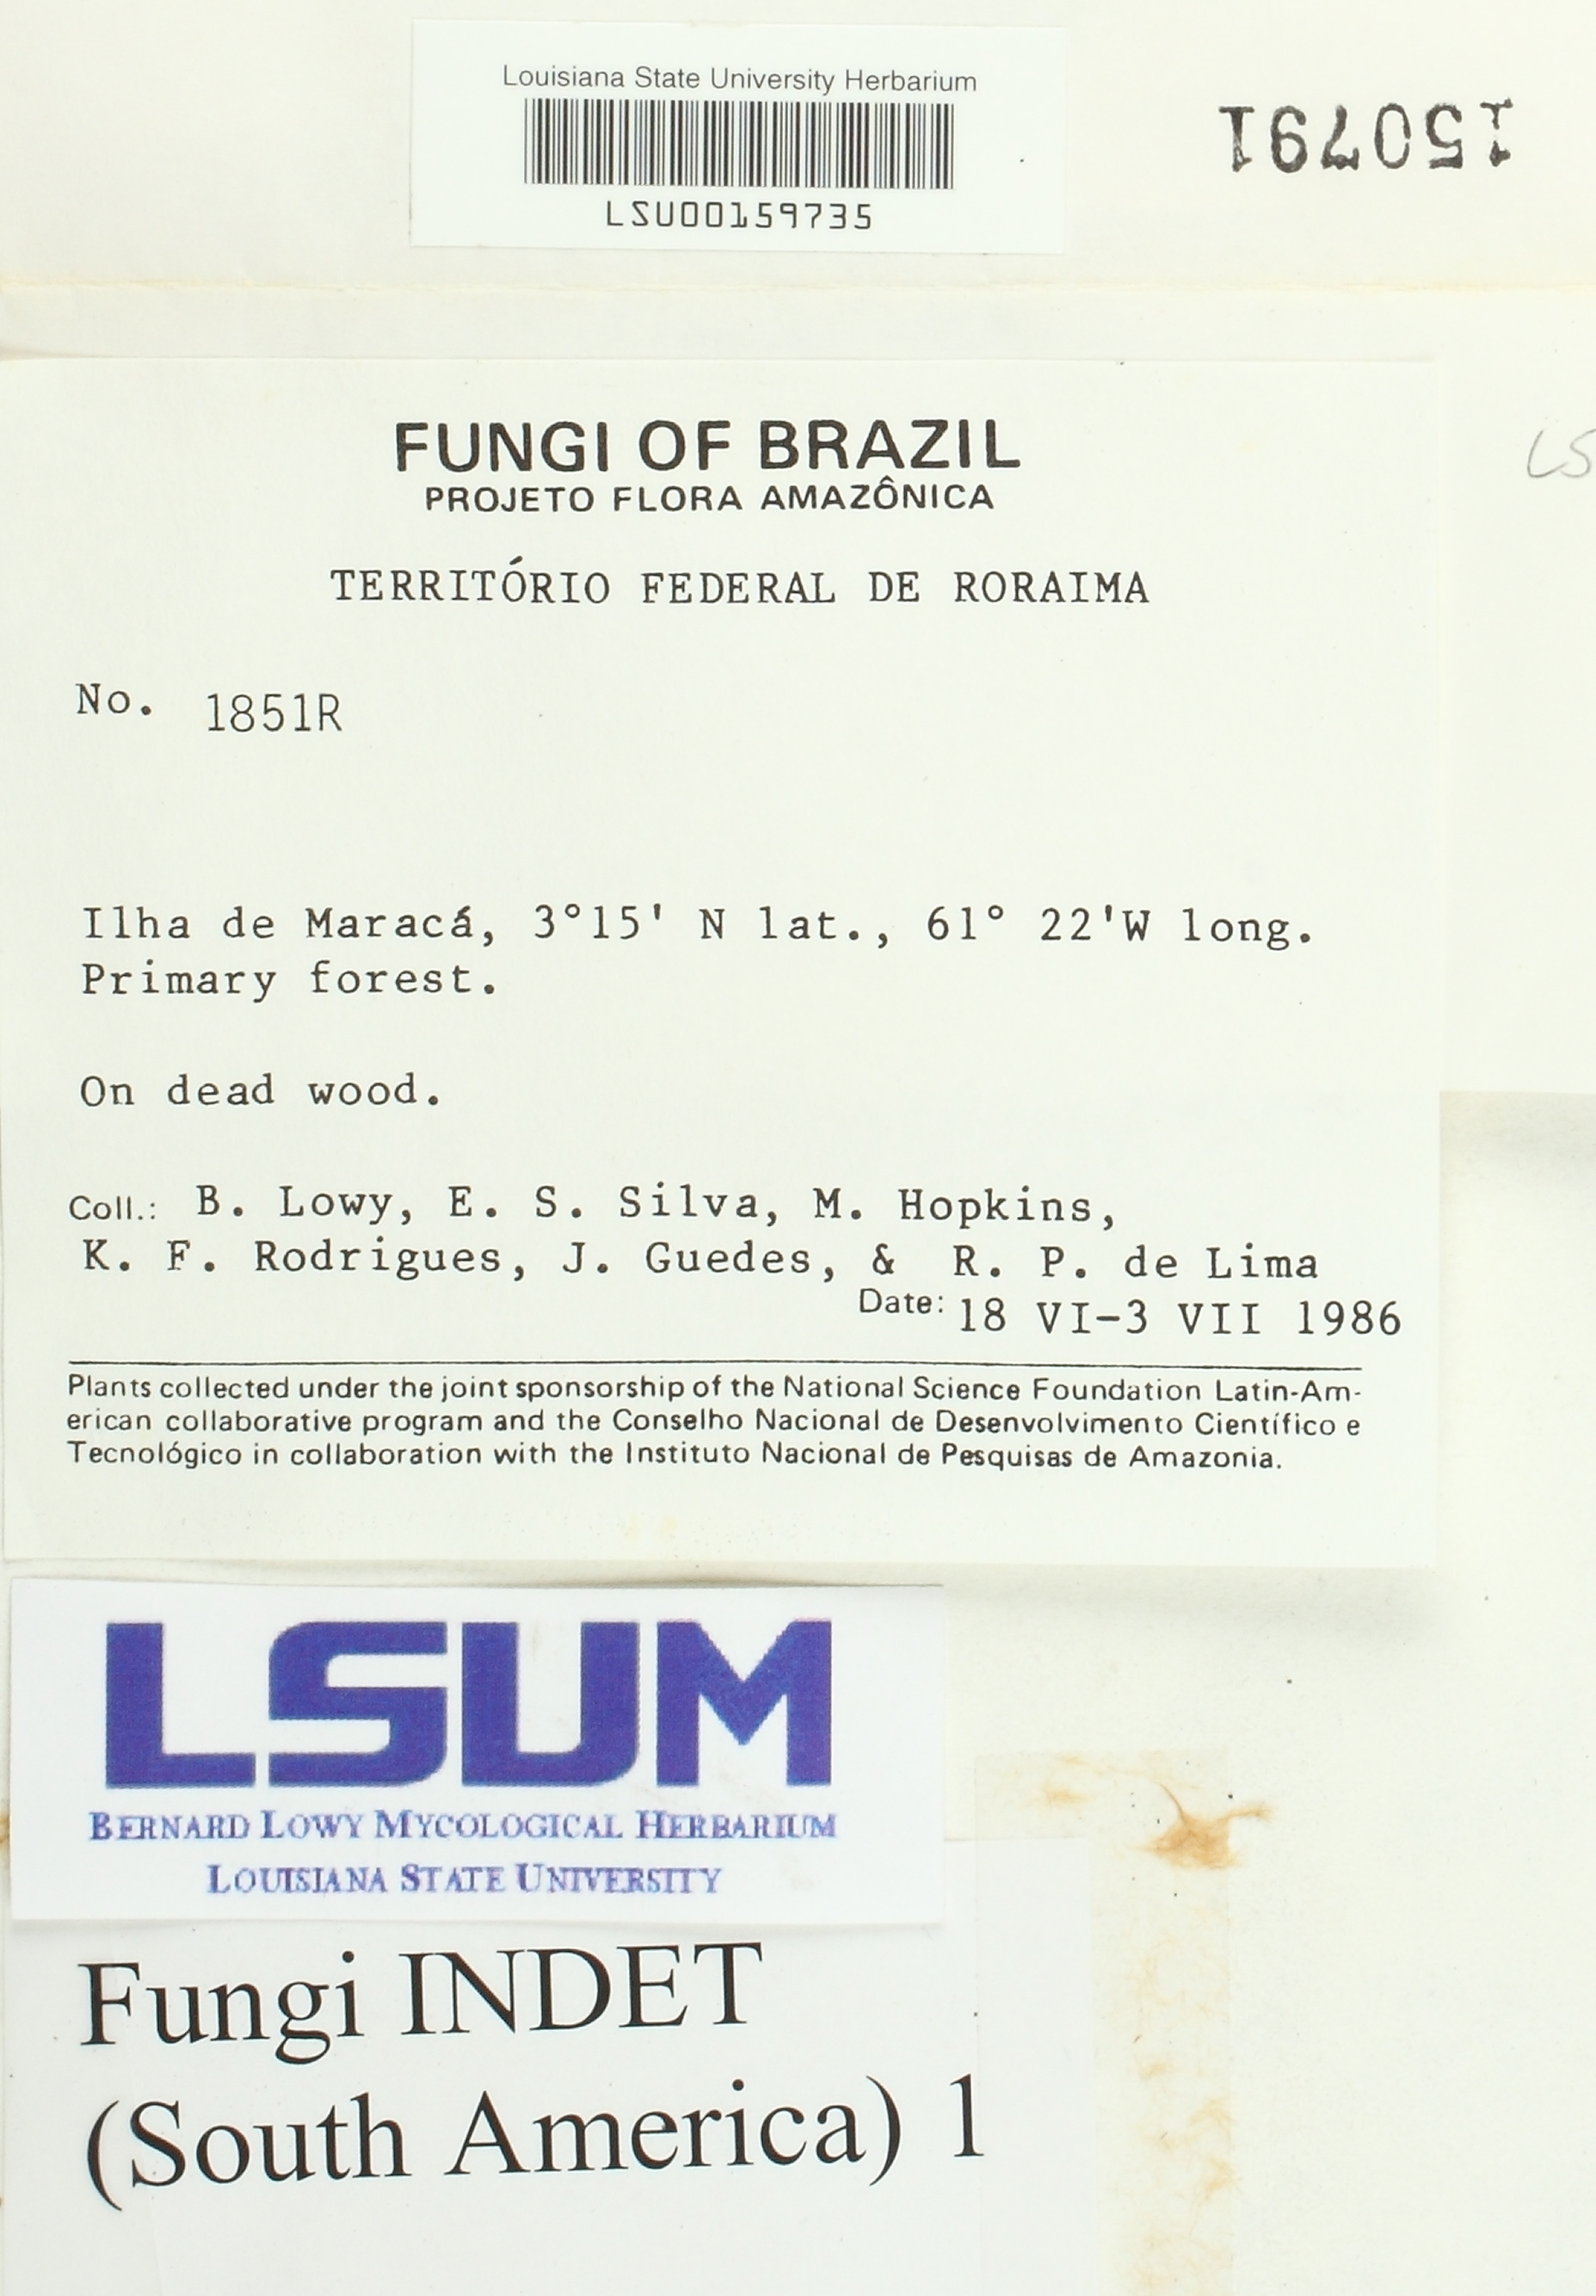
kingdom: Fungi
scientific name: Fungi
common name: Fungi
